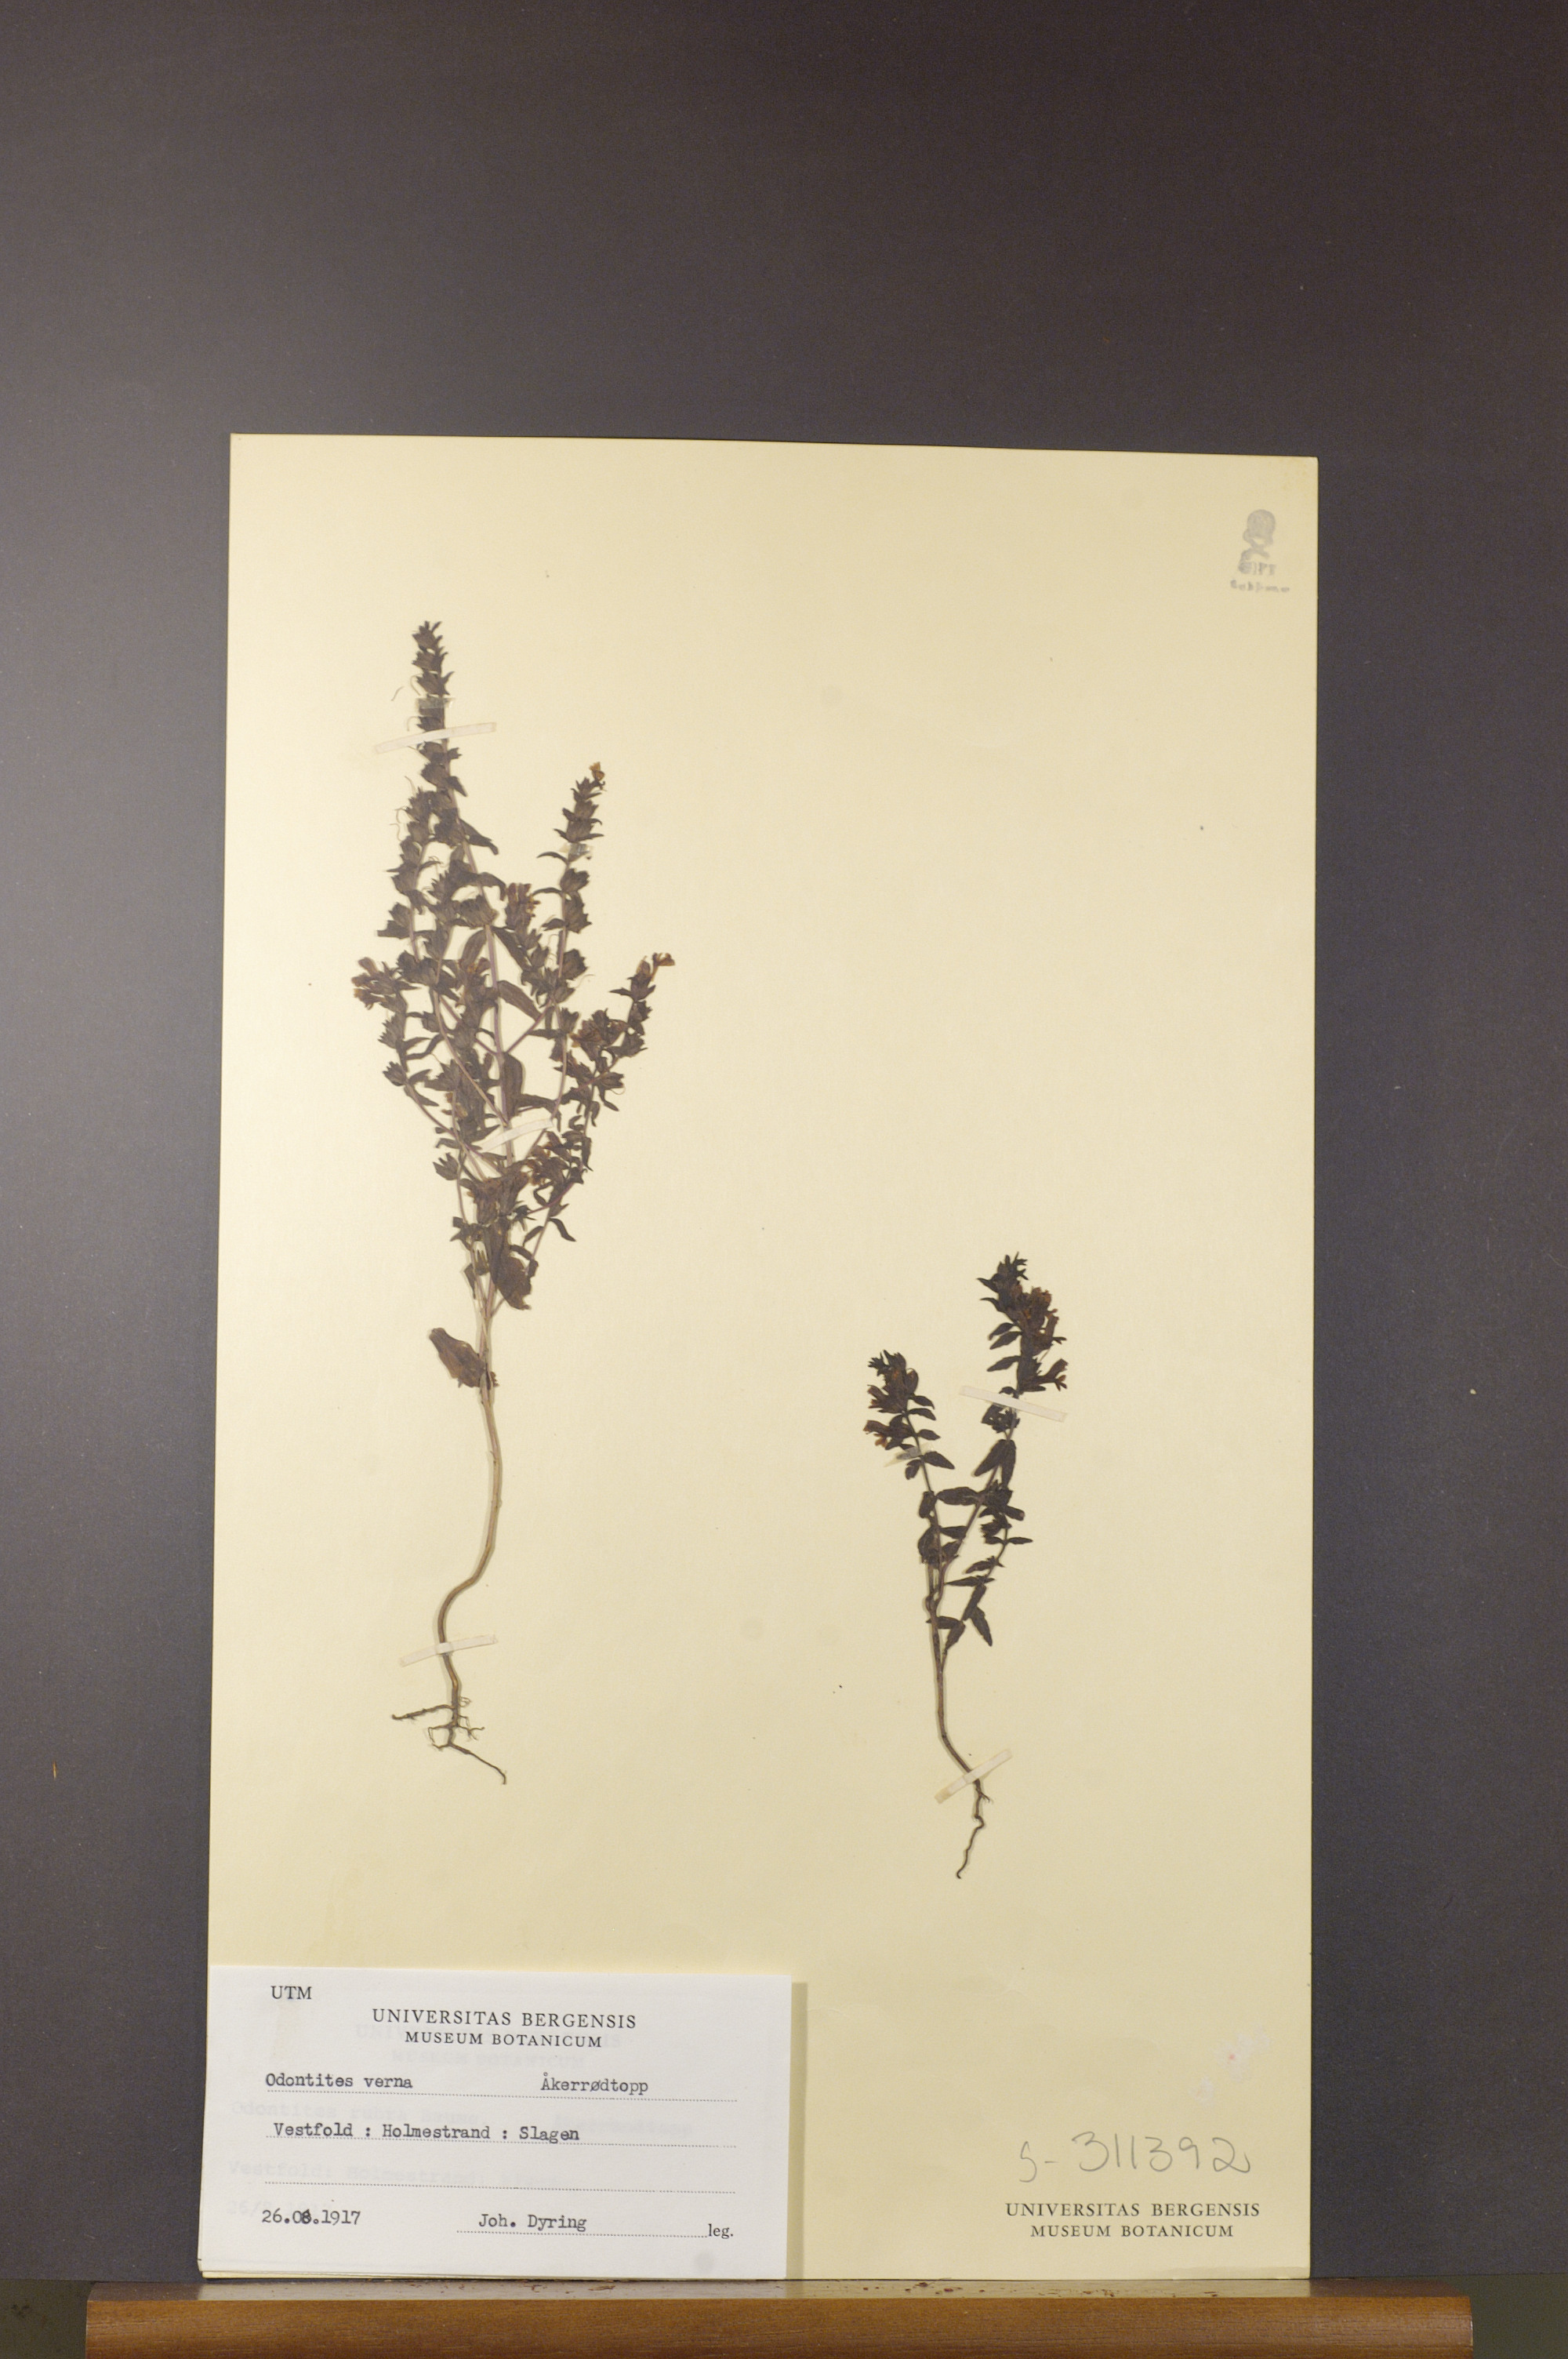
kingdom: Plantae
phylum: Tracheophyta
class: Magnoliopsida
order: Lamiales
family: Orobanchaceae
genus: Odontites
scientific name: Odontites vernus
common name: Red bartsia
